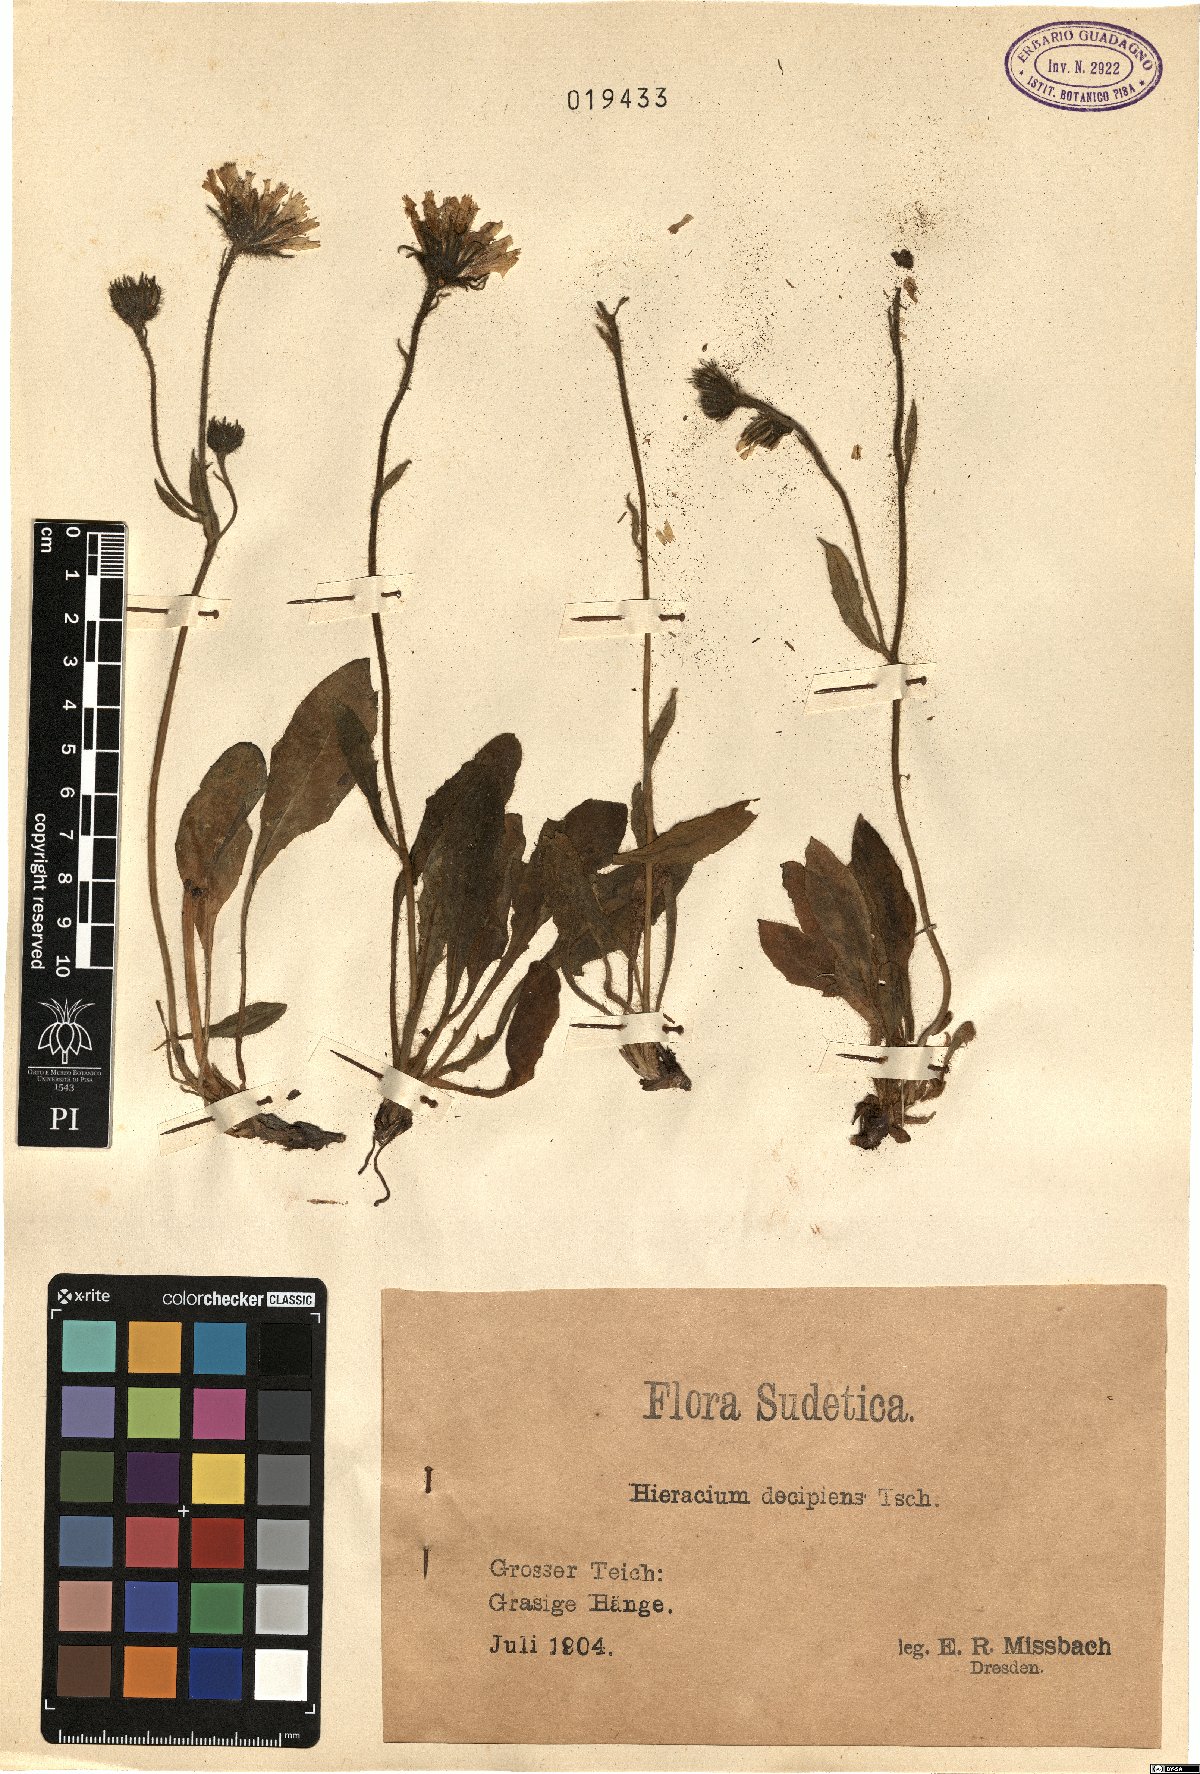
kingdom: Plantae
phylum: Tracheophyta
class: Magnoliopsida
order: Asterales
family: Asteraceae
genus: Hieracium
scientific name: Hieracium nigrescens
